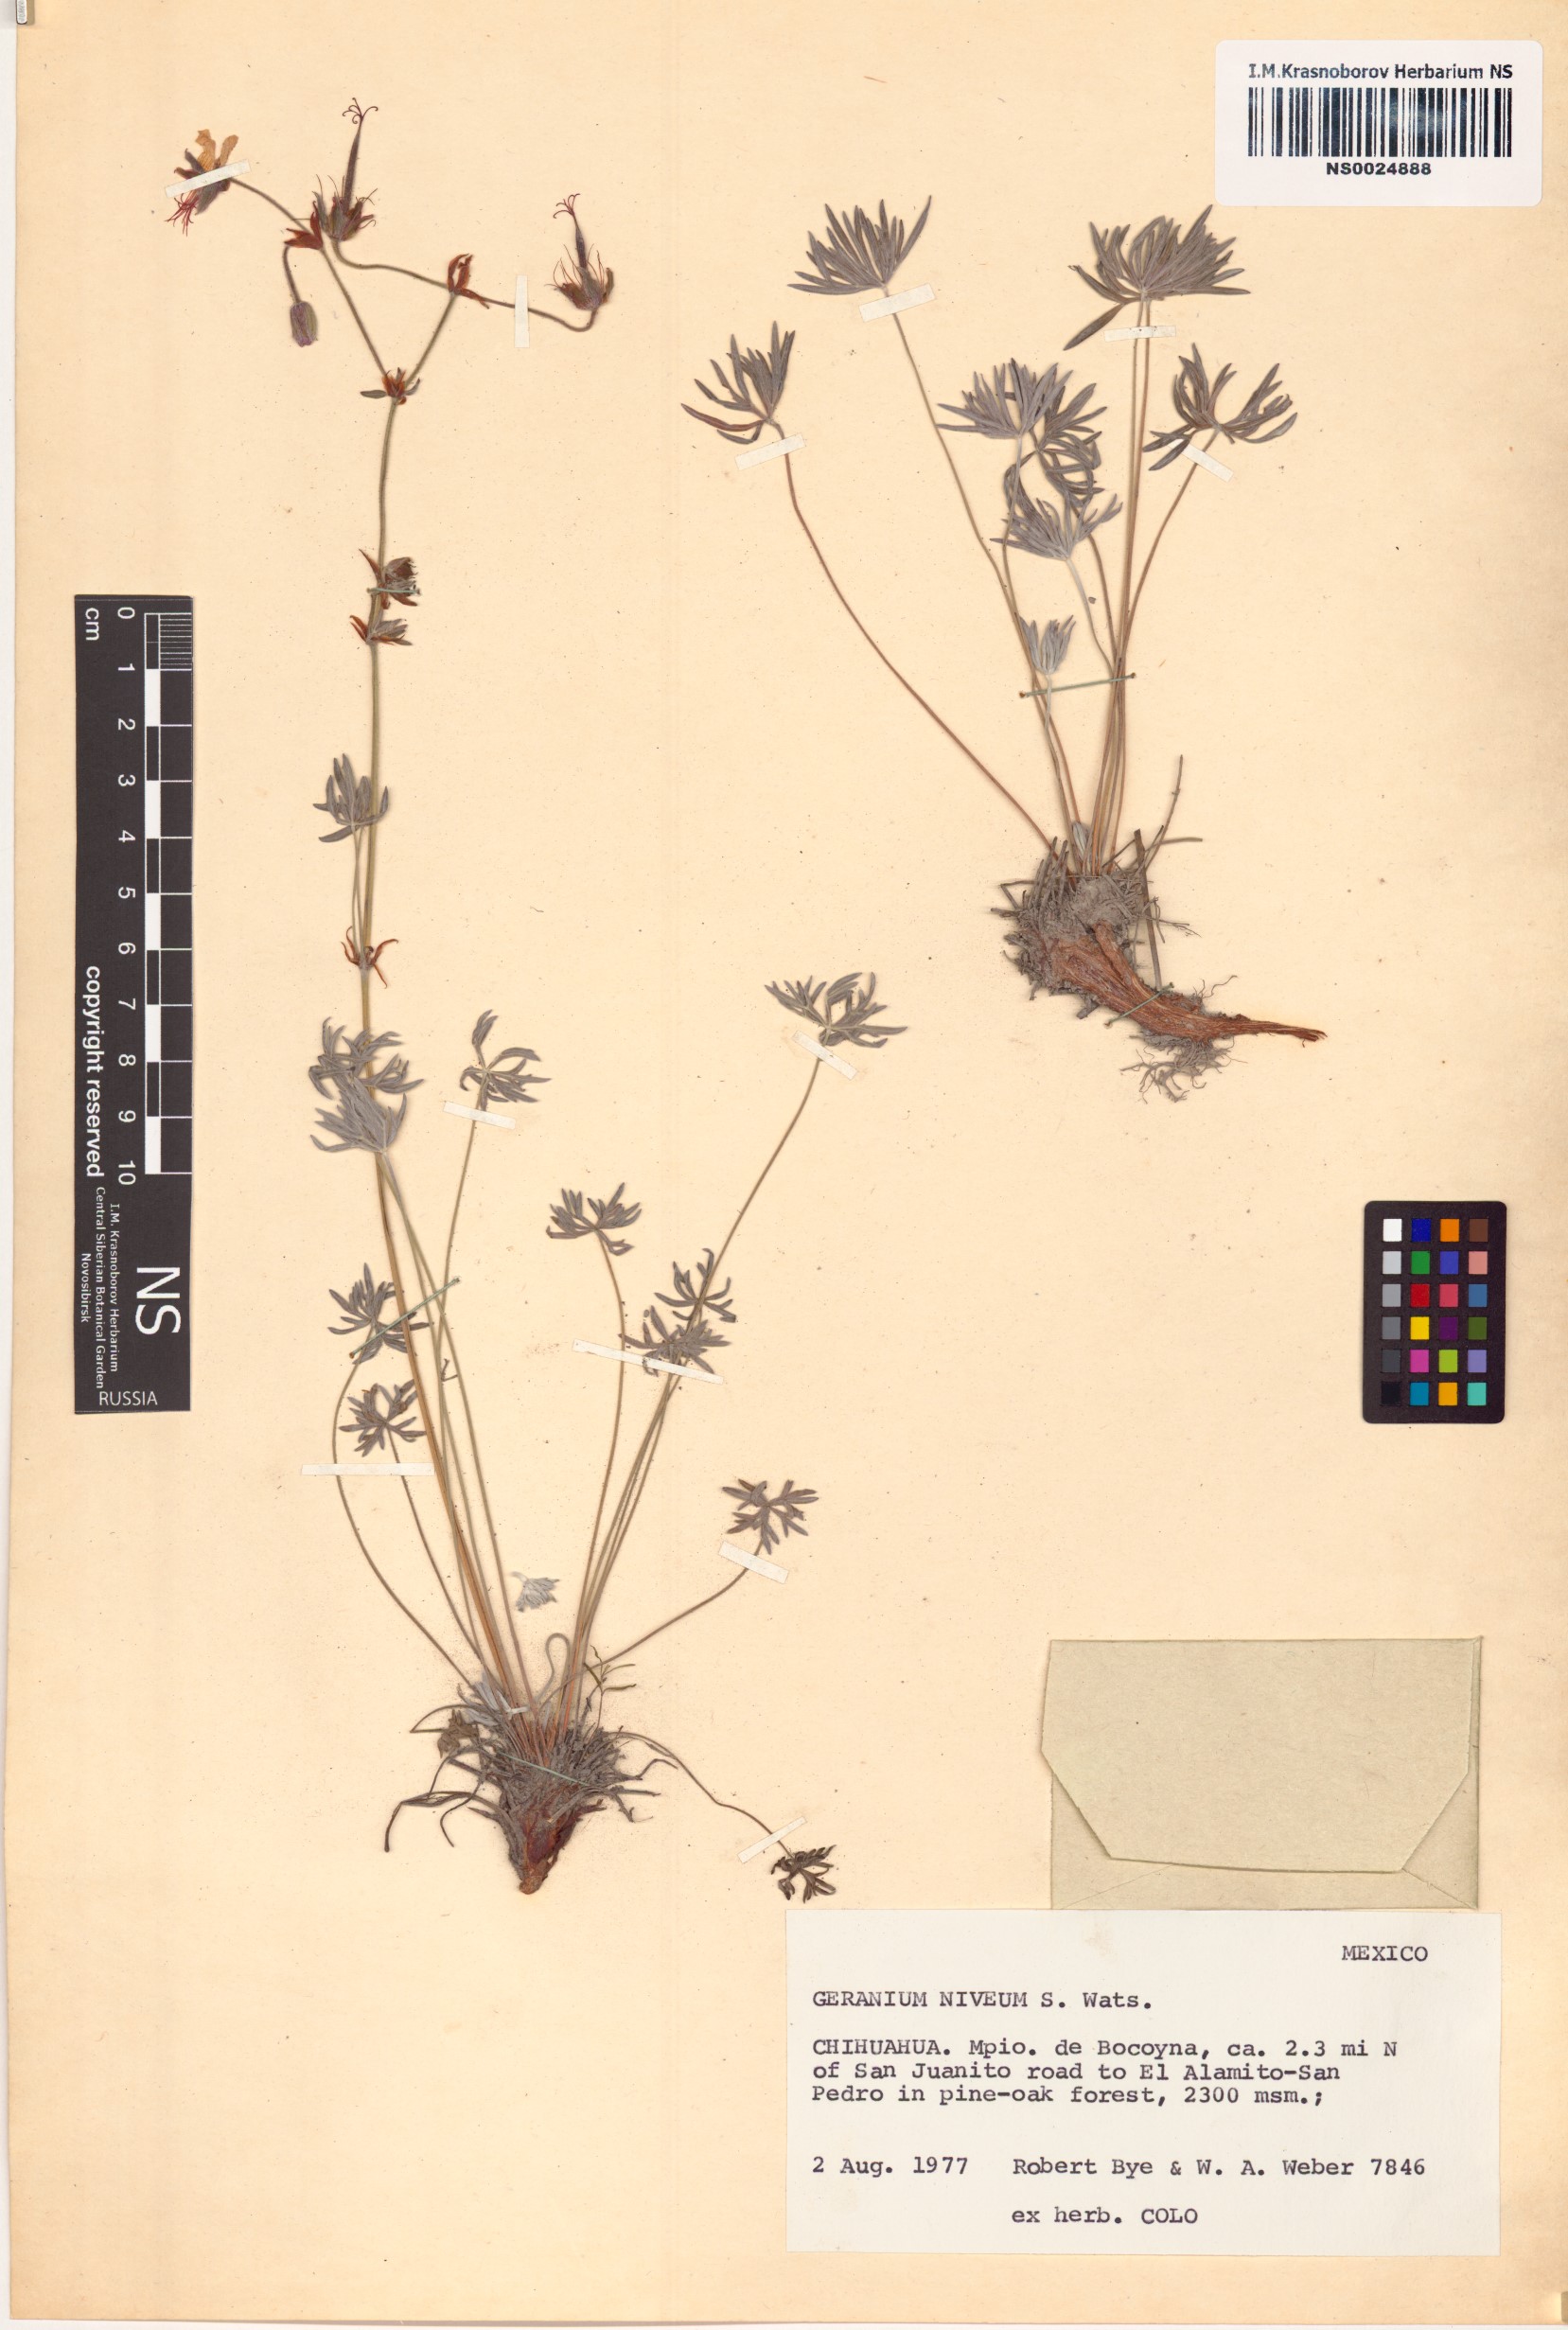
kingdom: Plantae
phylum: Tracheophyta
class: Magnoliopsida
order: Geraniales
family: Geraniaceae
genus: Geranium
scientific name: Geranium niveum
